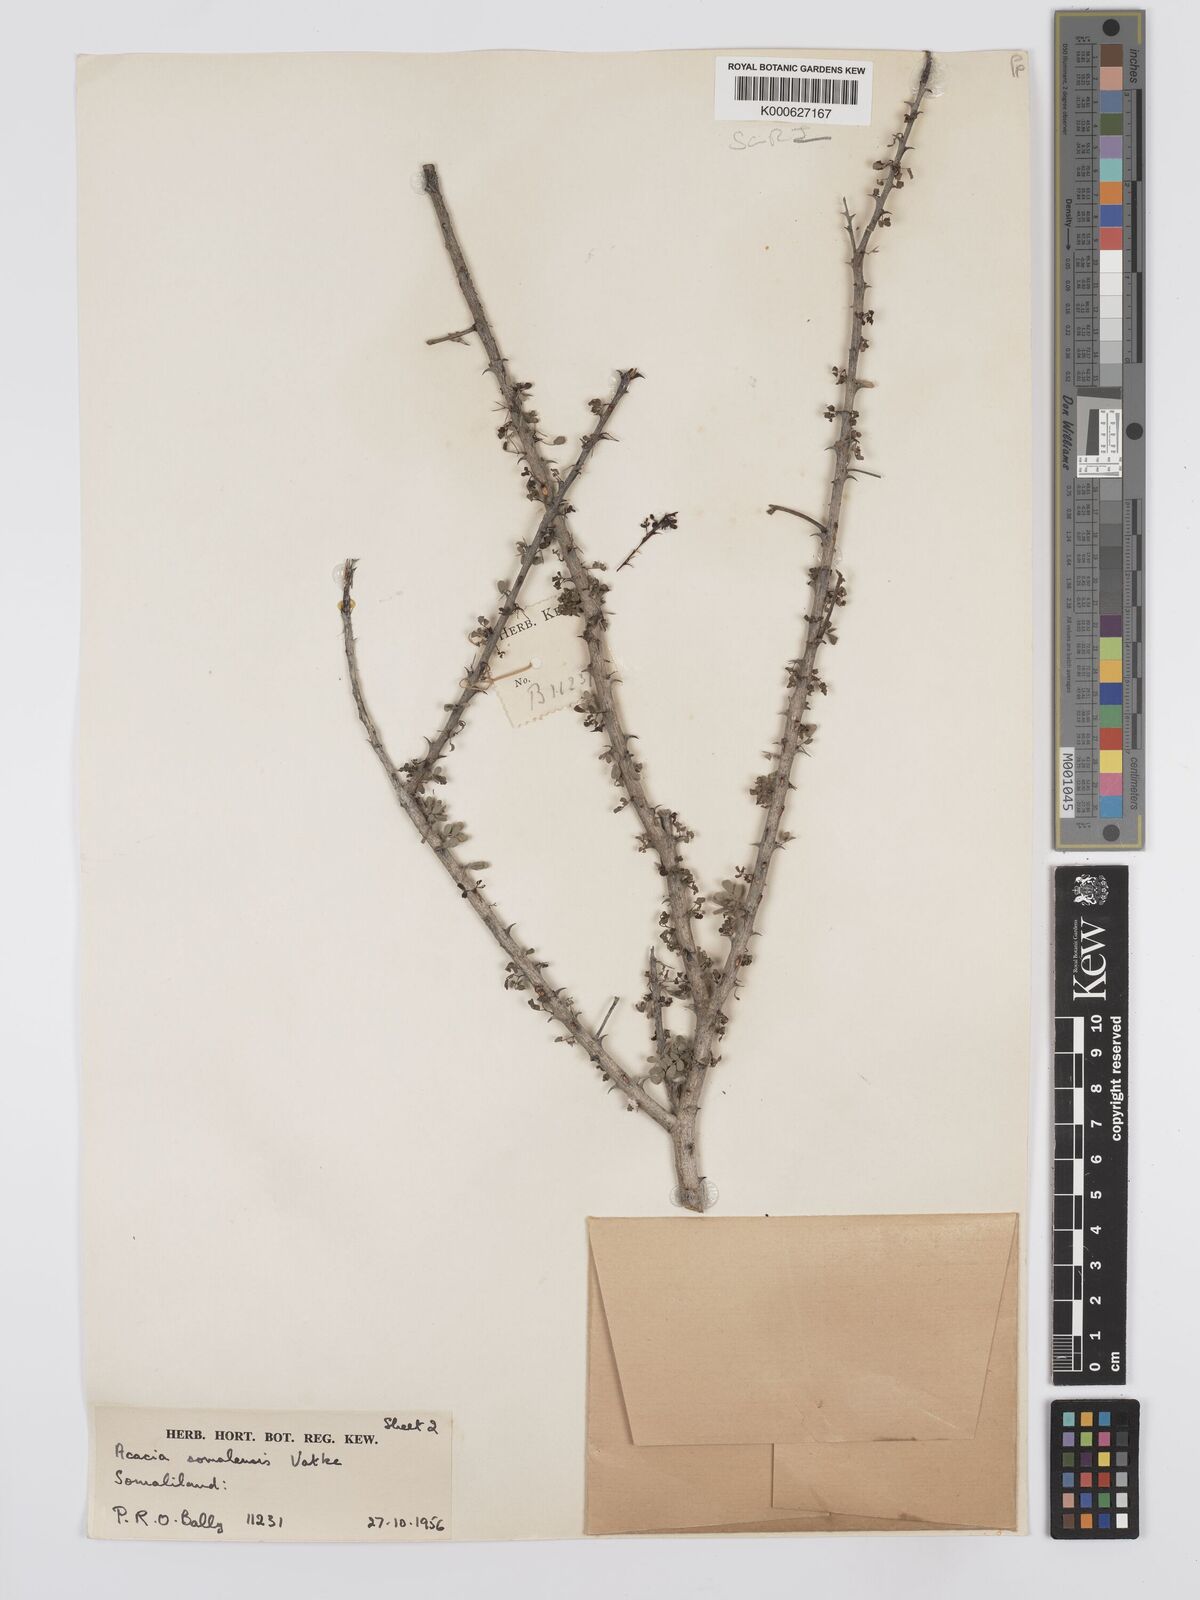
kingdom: Plantae
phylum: Tracheophyta
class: Magnoliopsida
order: Fabales
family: Fabaceae
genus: Senegalia
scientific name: Senegalia somalensis
